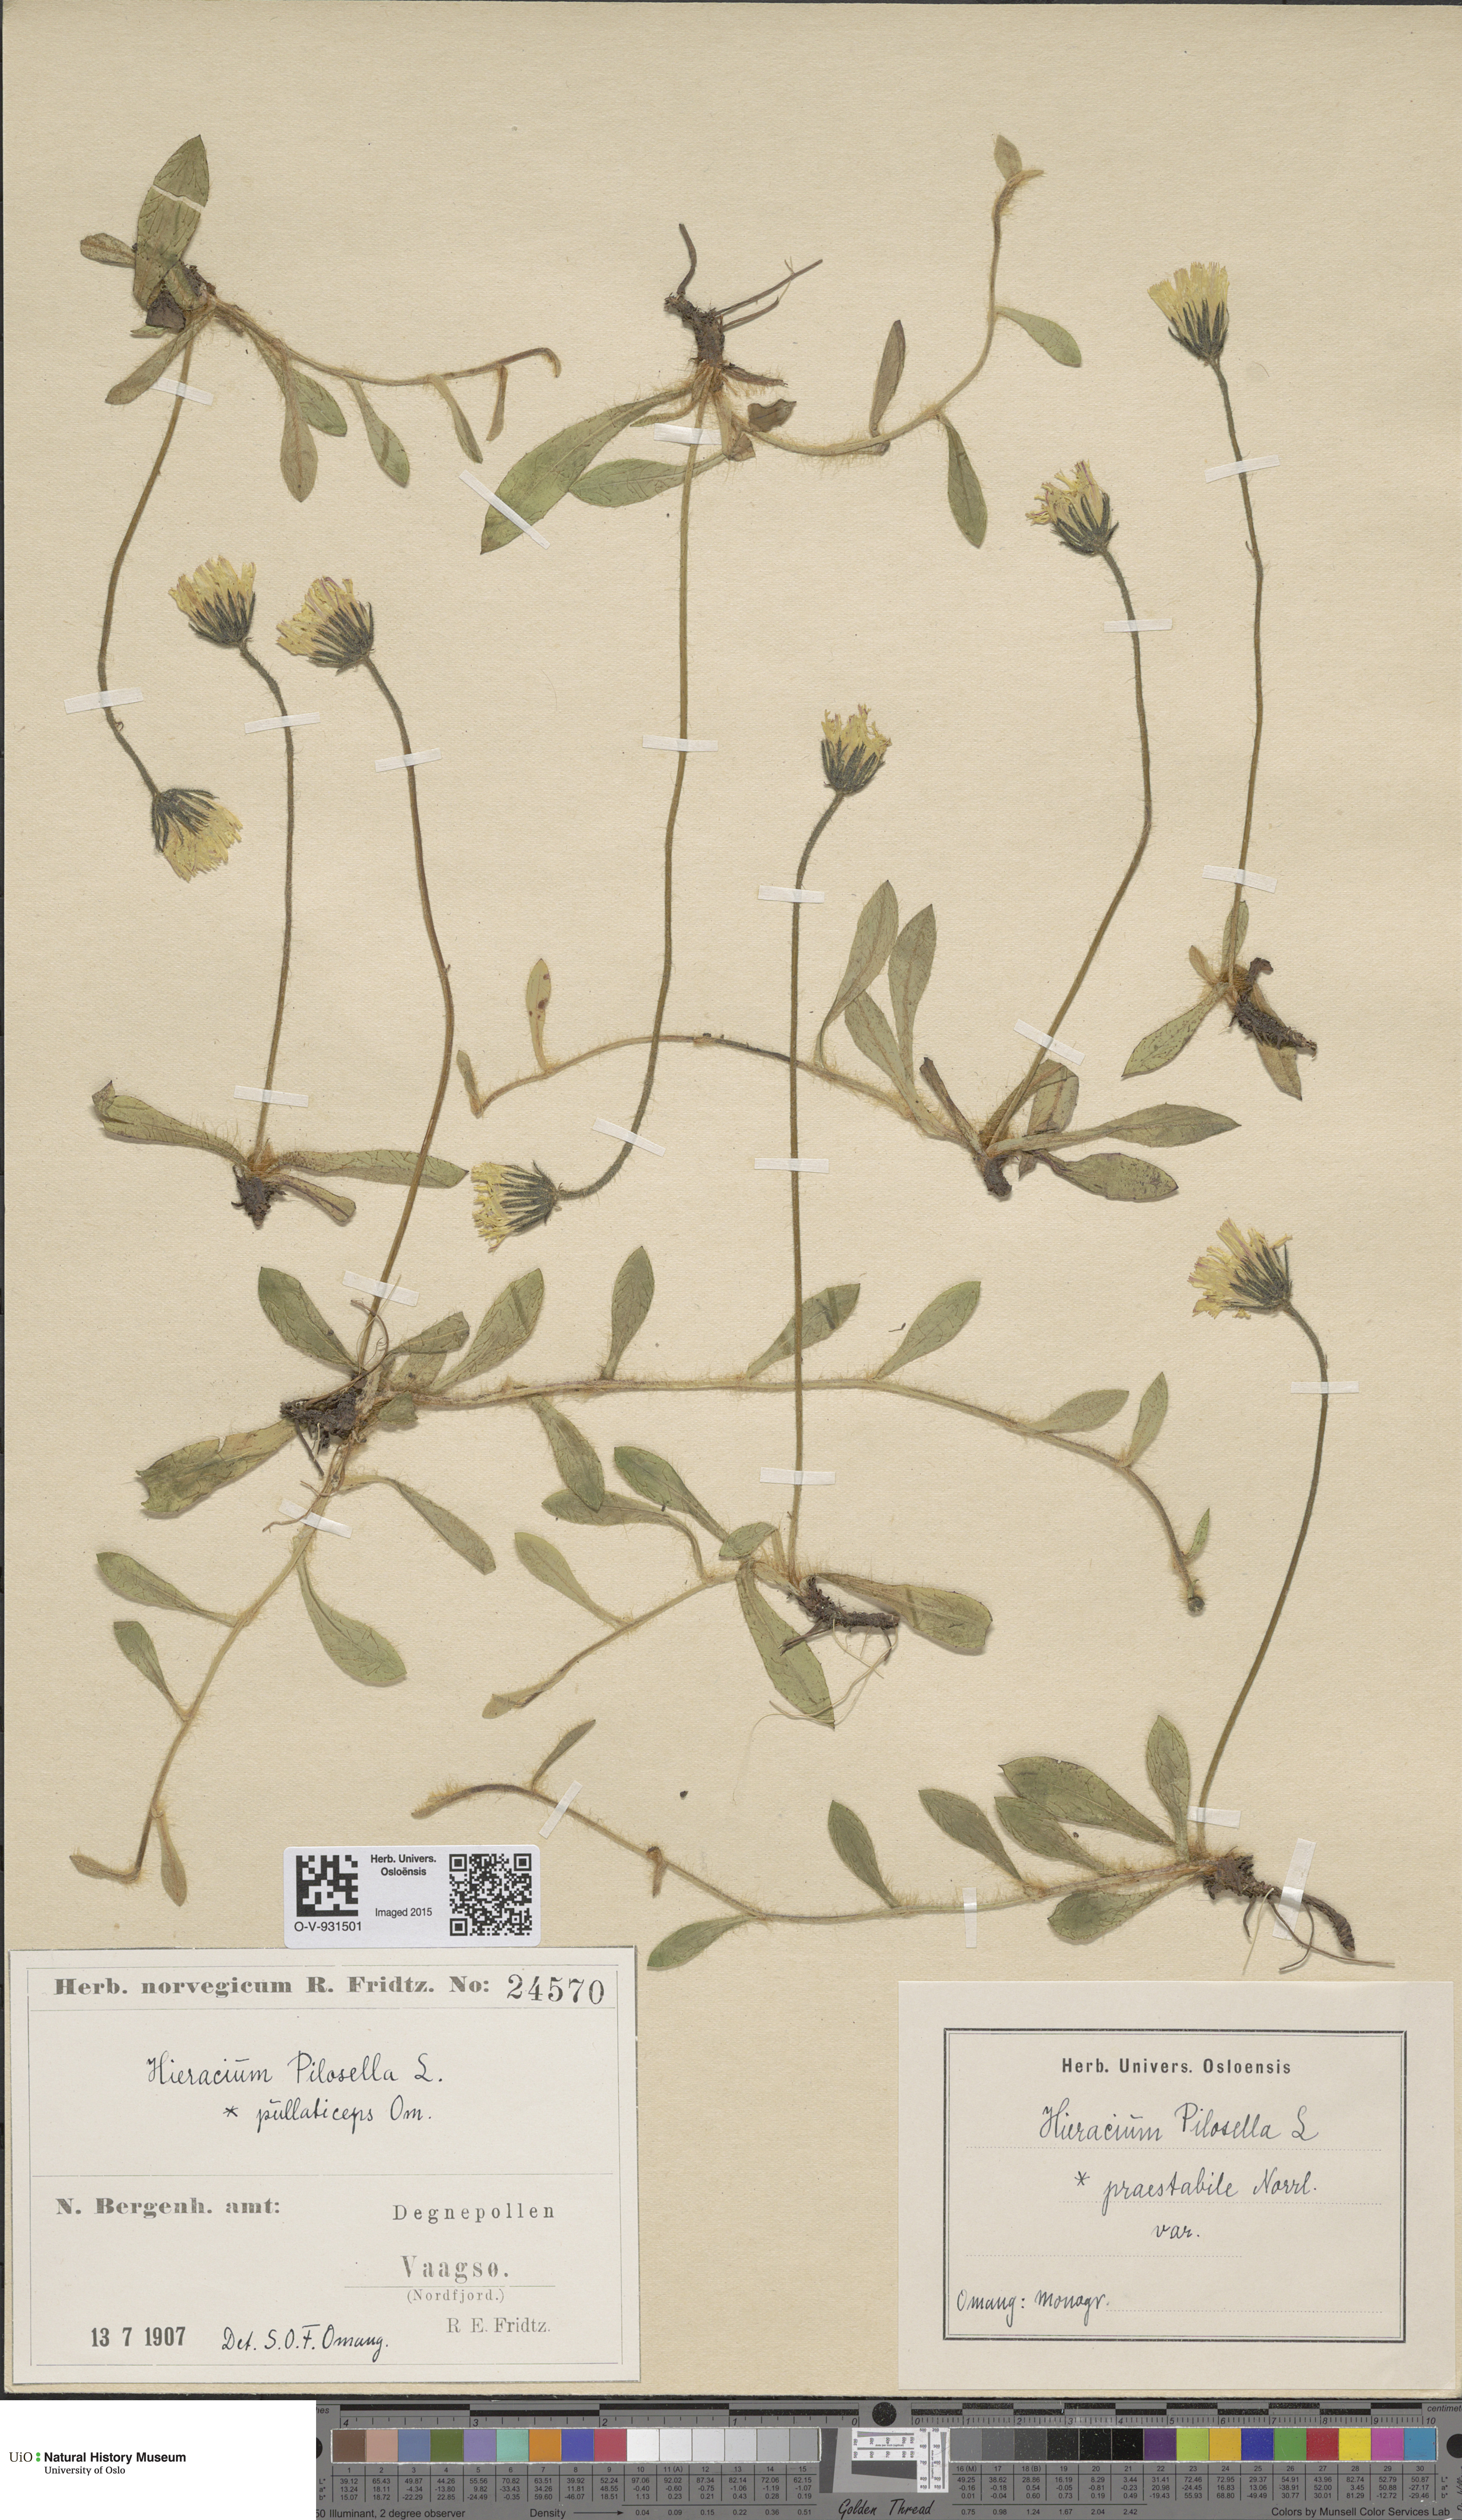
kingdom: Plantae
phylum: Tracheophyta
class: Magnoliopsida
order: Asterales
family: Asteraceae
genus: Pilosella
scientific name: Pilosella officinarum
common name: Mouse-ear hawkweed
